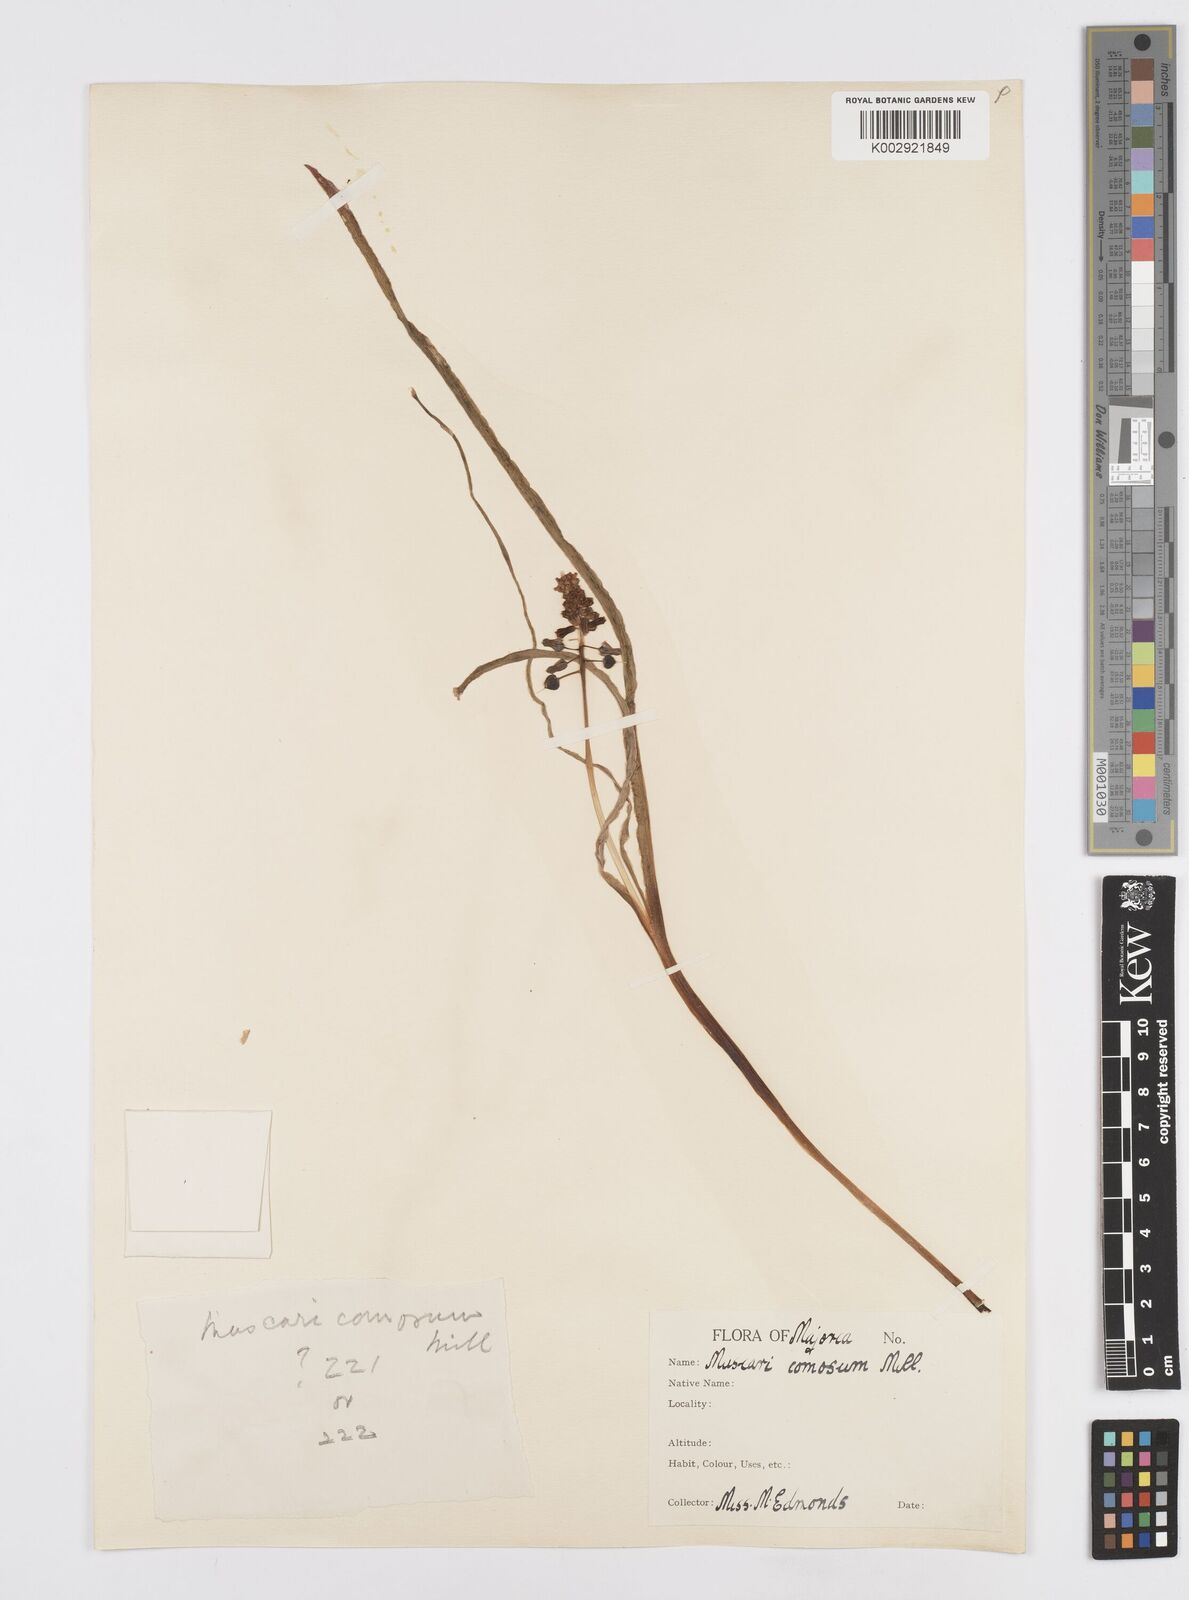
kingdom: Plantae
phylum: Tracheophyta
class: Liliopsida
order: Asparagales
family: Asparagaceae
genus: Muscari
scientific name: Muscari comosum
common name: Tassel hyacinth
